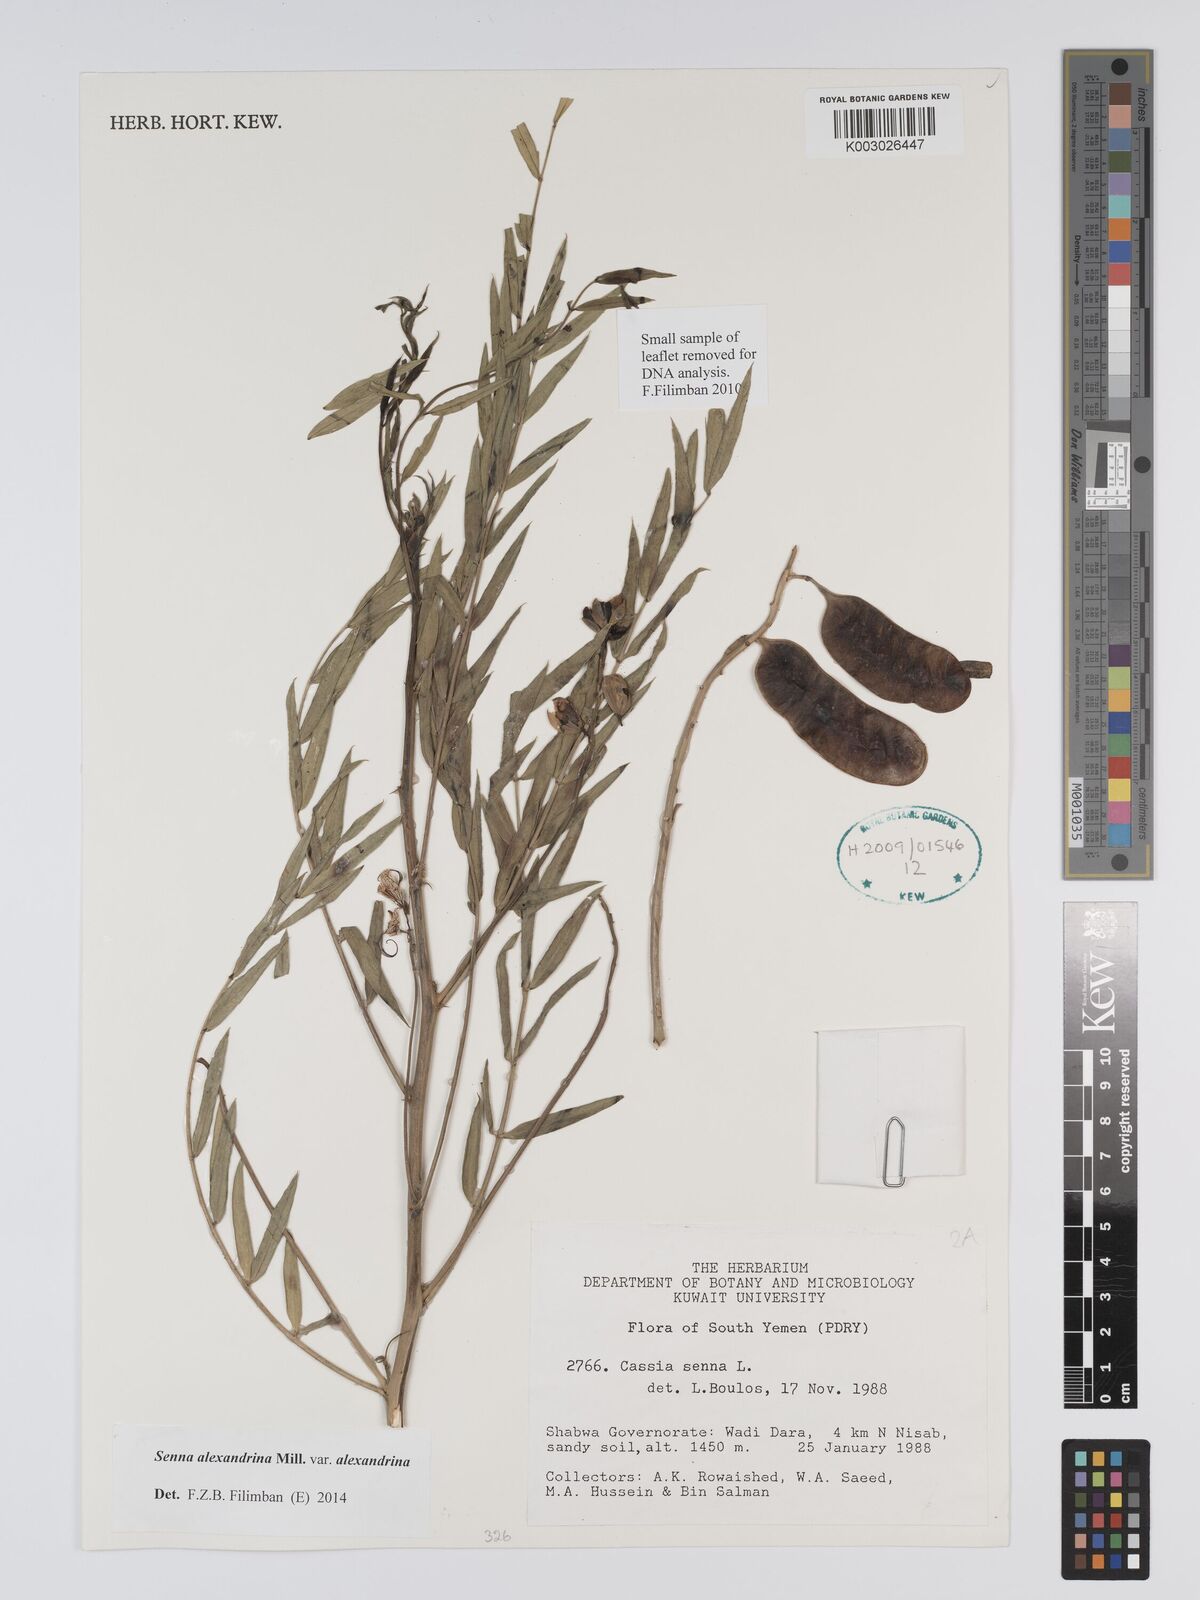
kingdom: Plantae
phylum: Tracheophyta
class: Magnoliopsida
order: Fabales
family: Fabaceae
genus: Senna
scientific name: Senna alexandrina
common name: True senna
